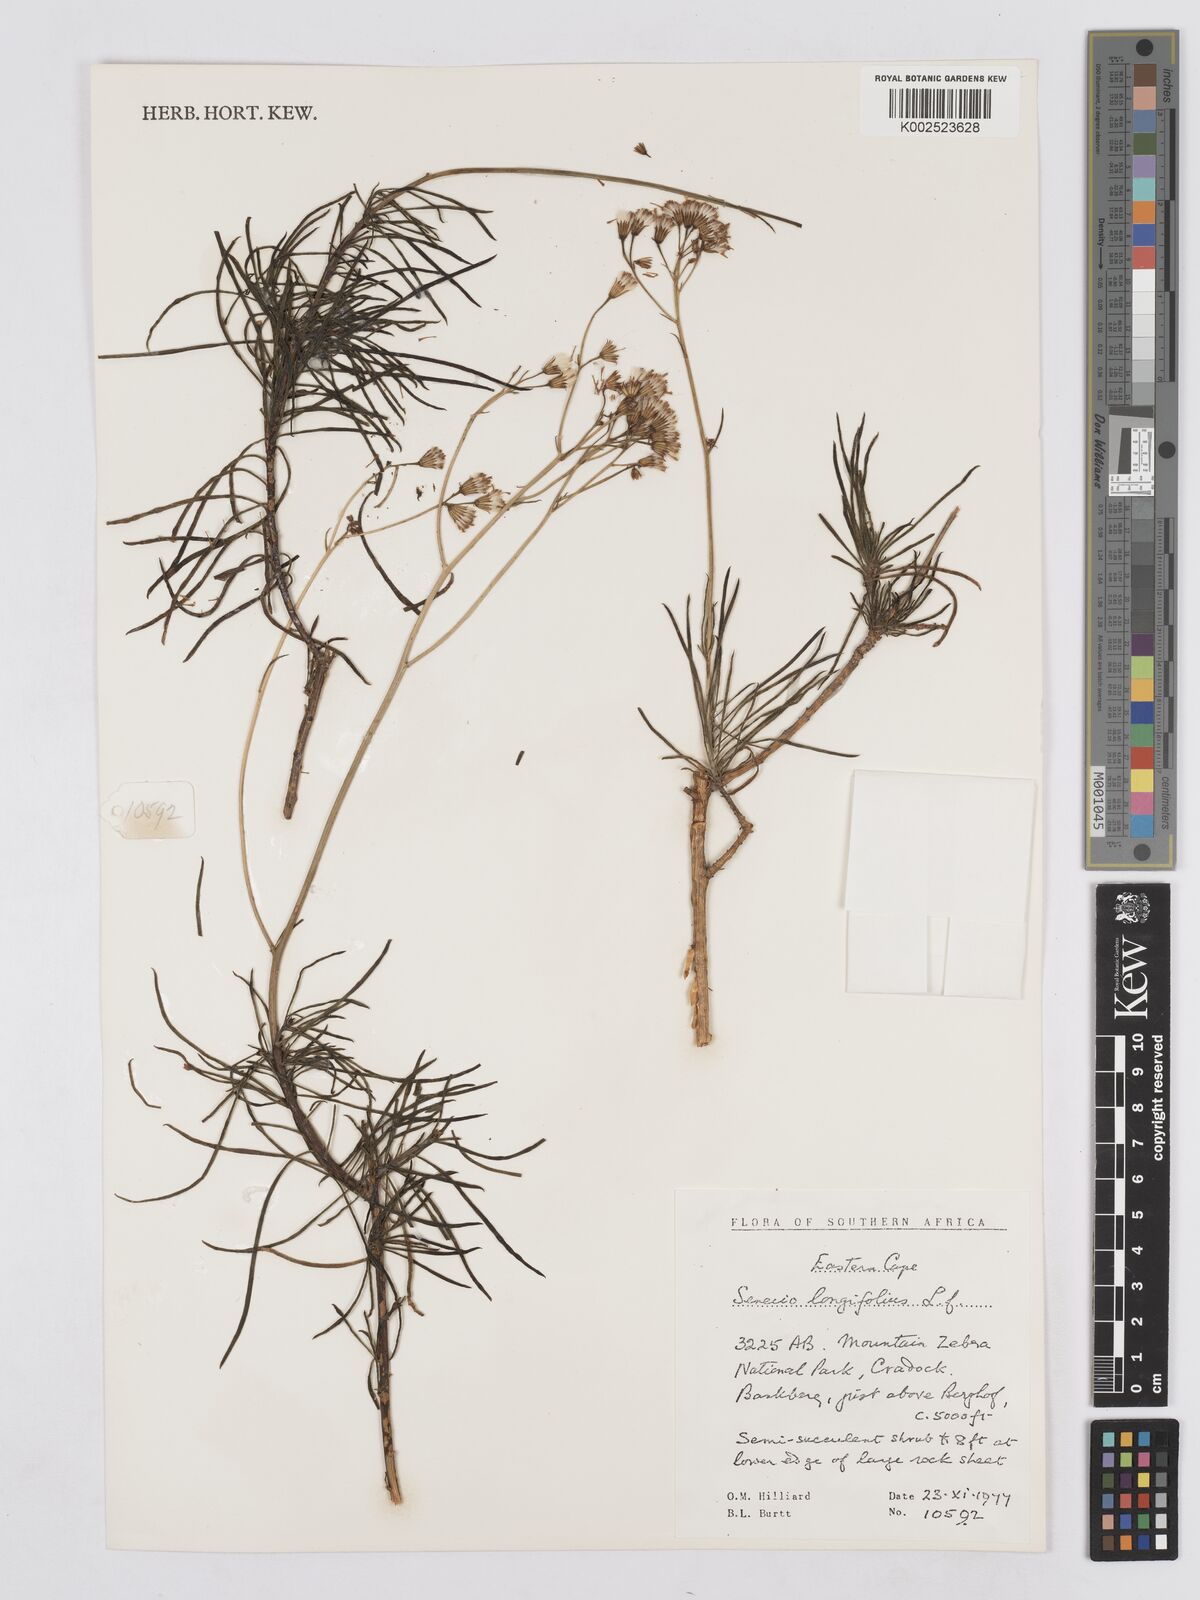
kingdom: Plantae
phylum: Tracheophyta
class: Magnoliopsida
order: Asterales
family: Asteraceae
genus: Senecio
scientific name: Senecio linifolius
